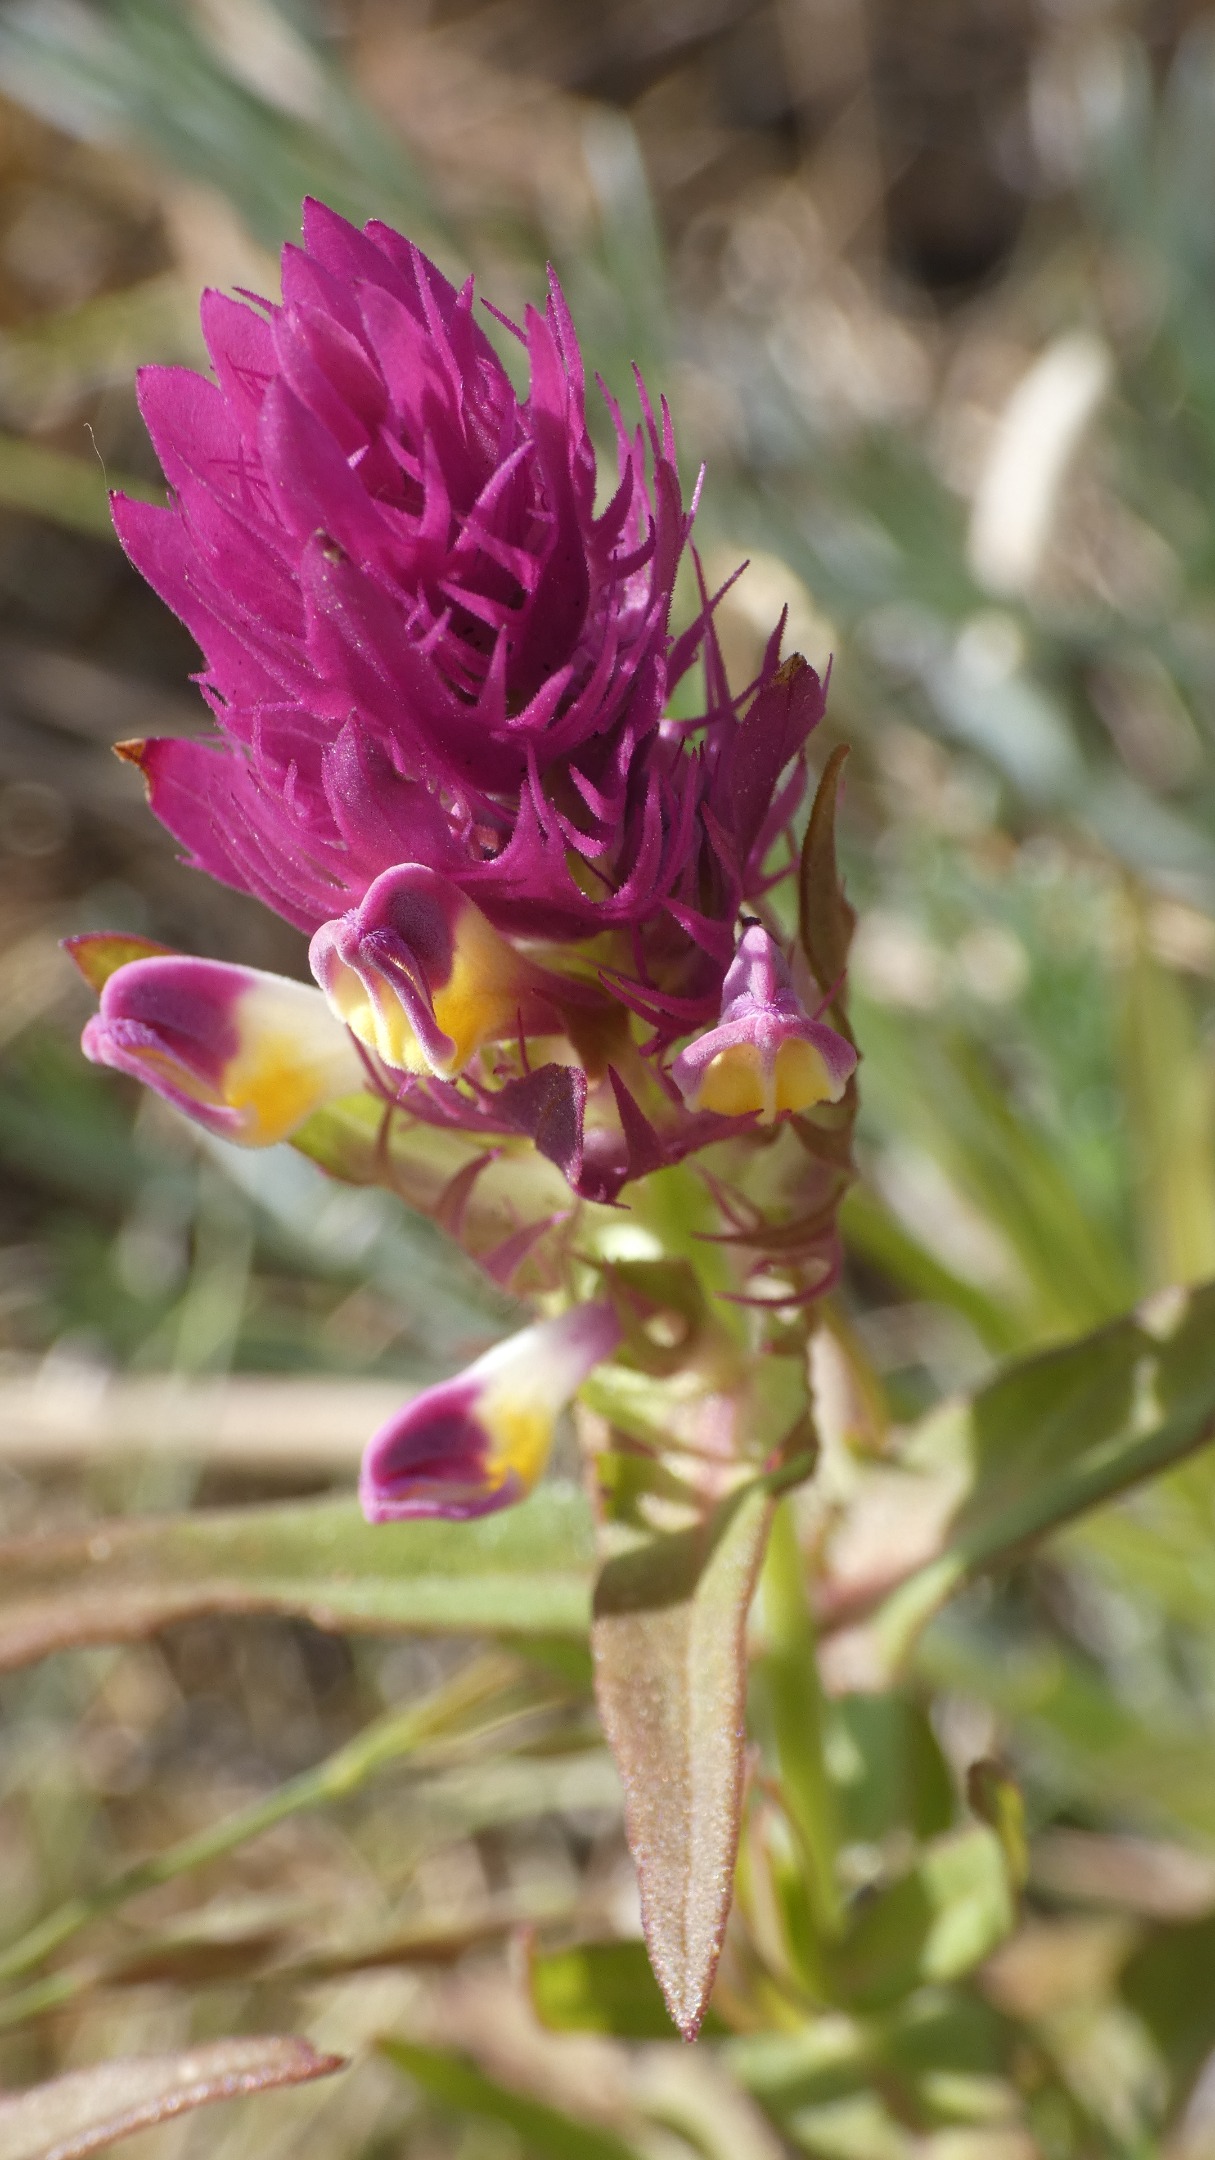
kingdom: Plantae
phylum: Tracheophyta
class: Magnoliopsida
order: Lamiales
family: Orobanchaceae
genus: Melampyrum
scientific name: Melampyrum arvense
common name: Ager-kohvede
